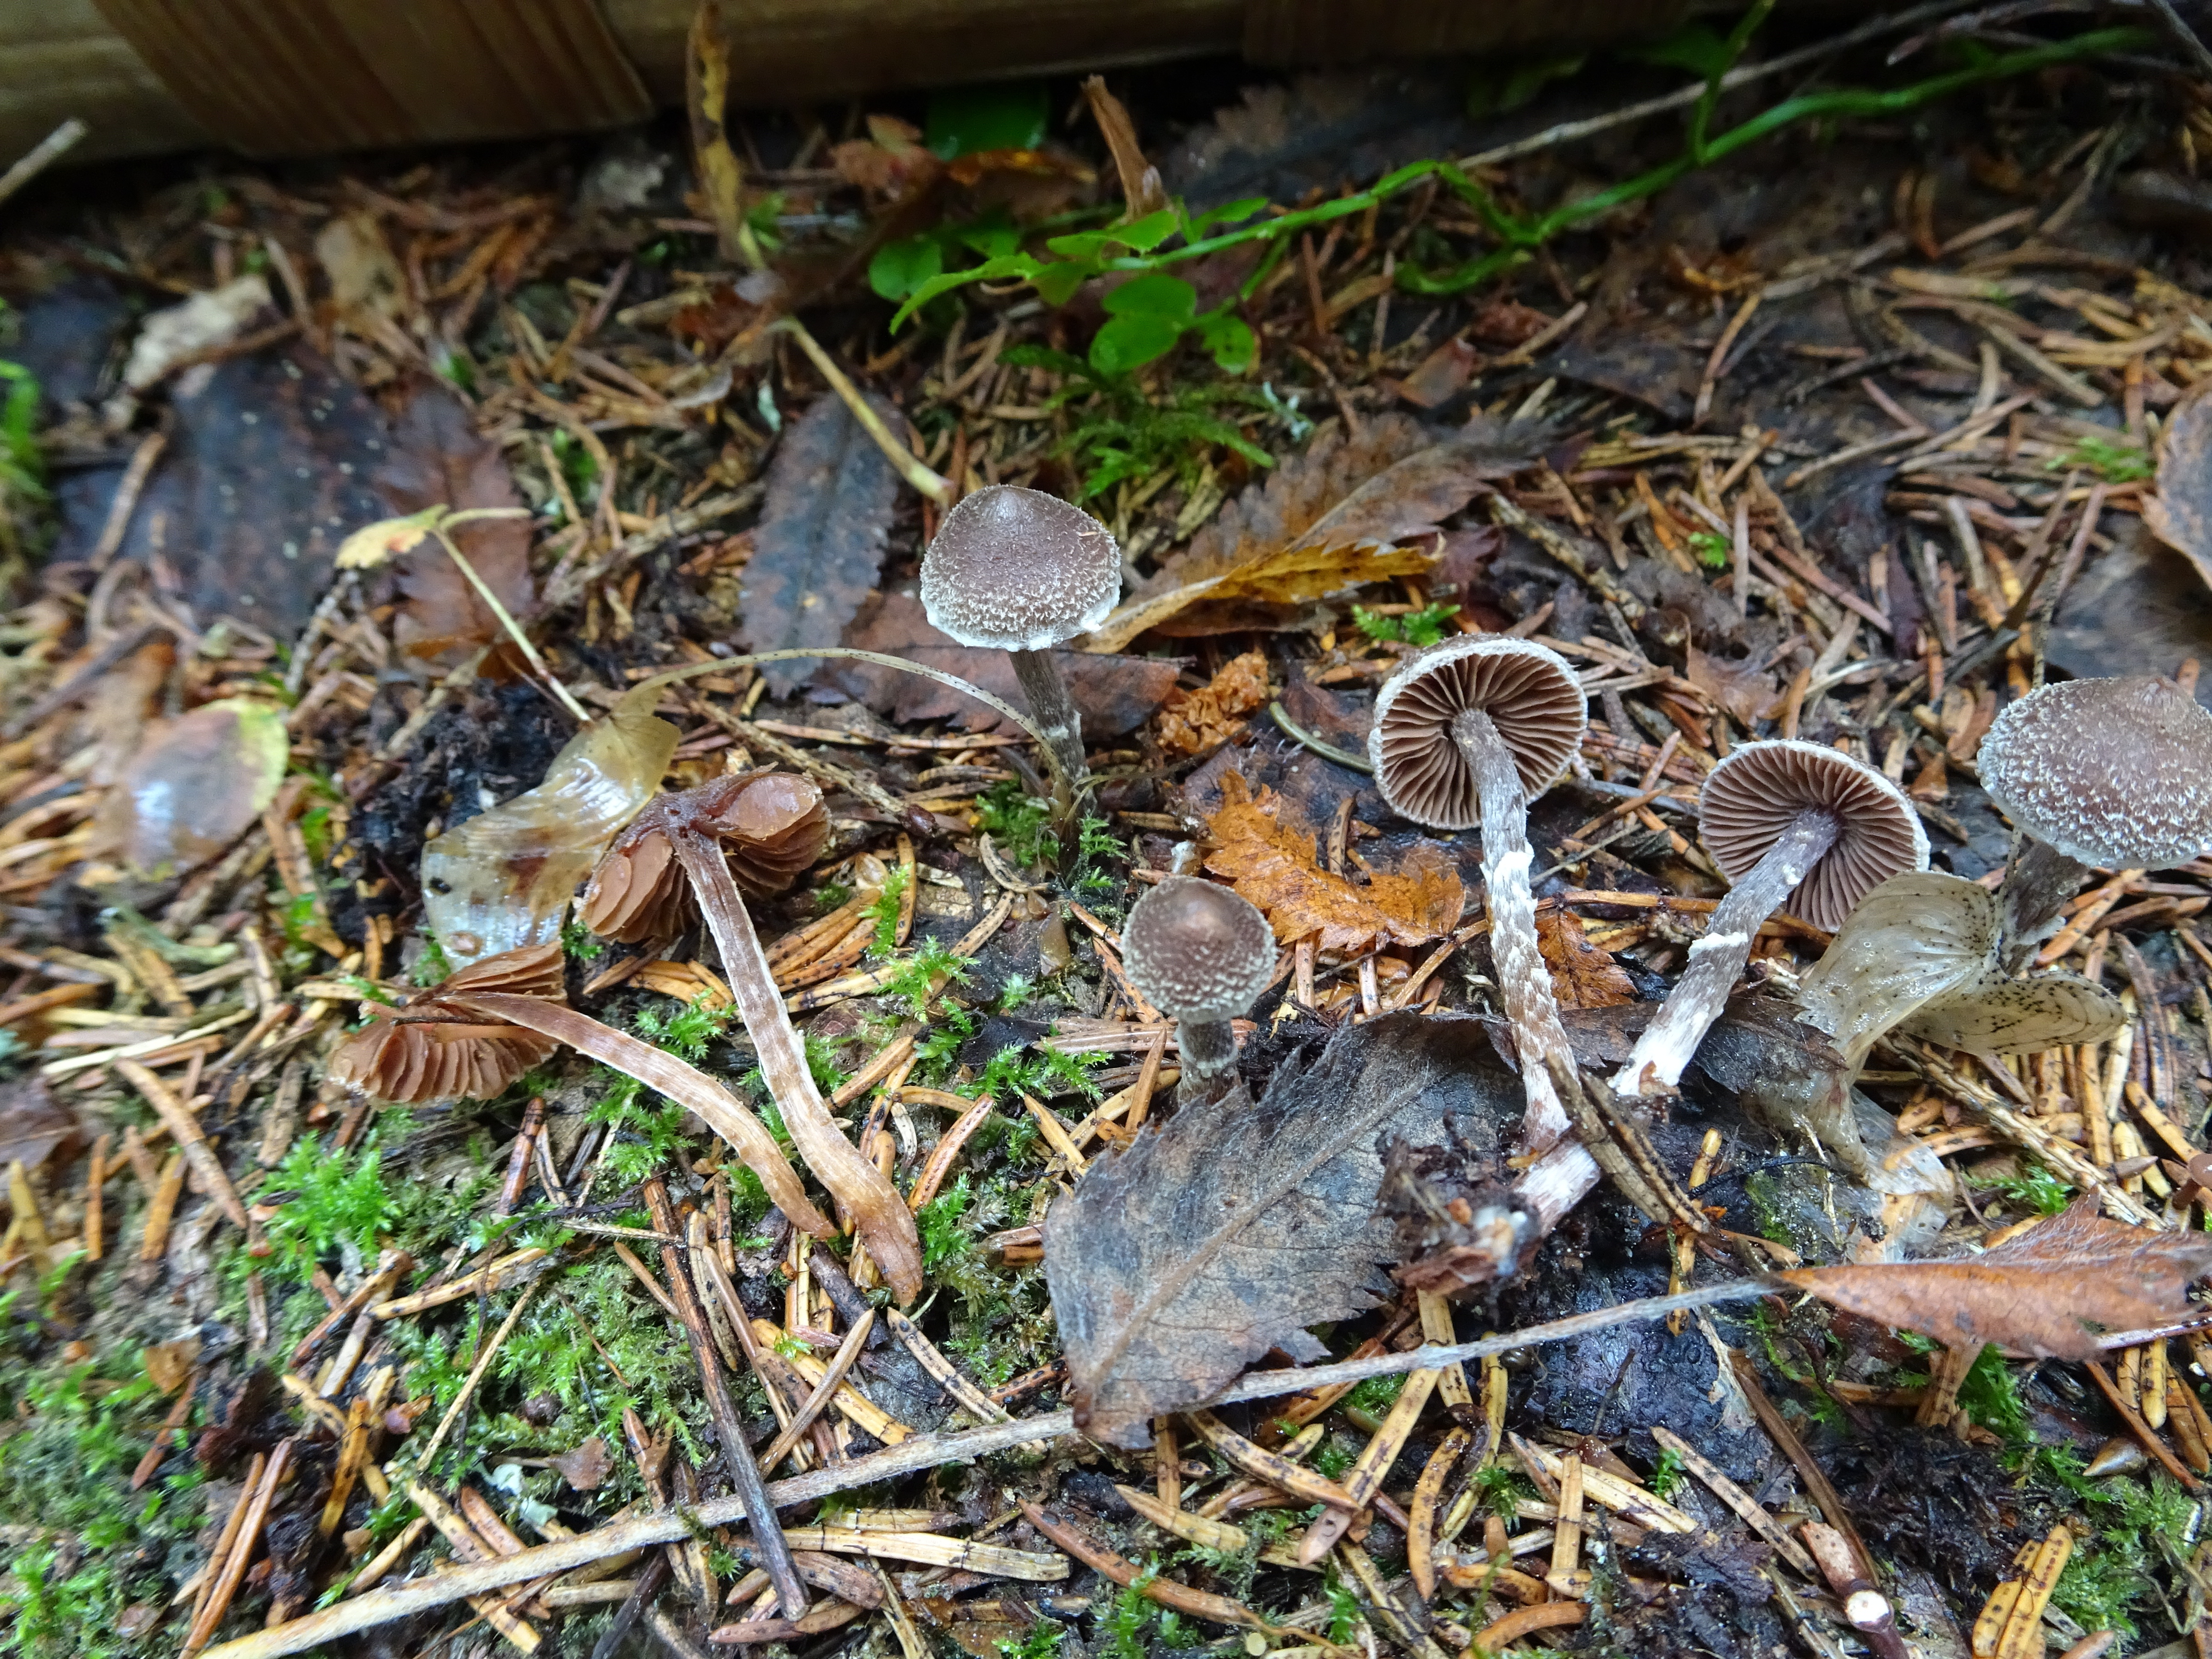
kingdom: Fungi
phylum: Basidiomycota
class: Agaricomycetes
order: Agaricales
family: Cortinariaceae
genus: Cortinarius
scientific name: Cortinarius flexipes
